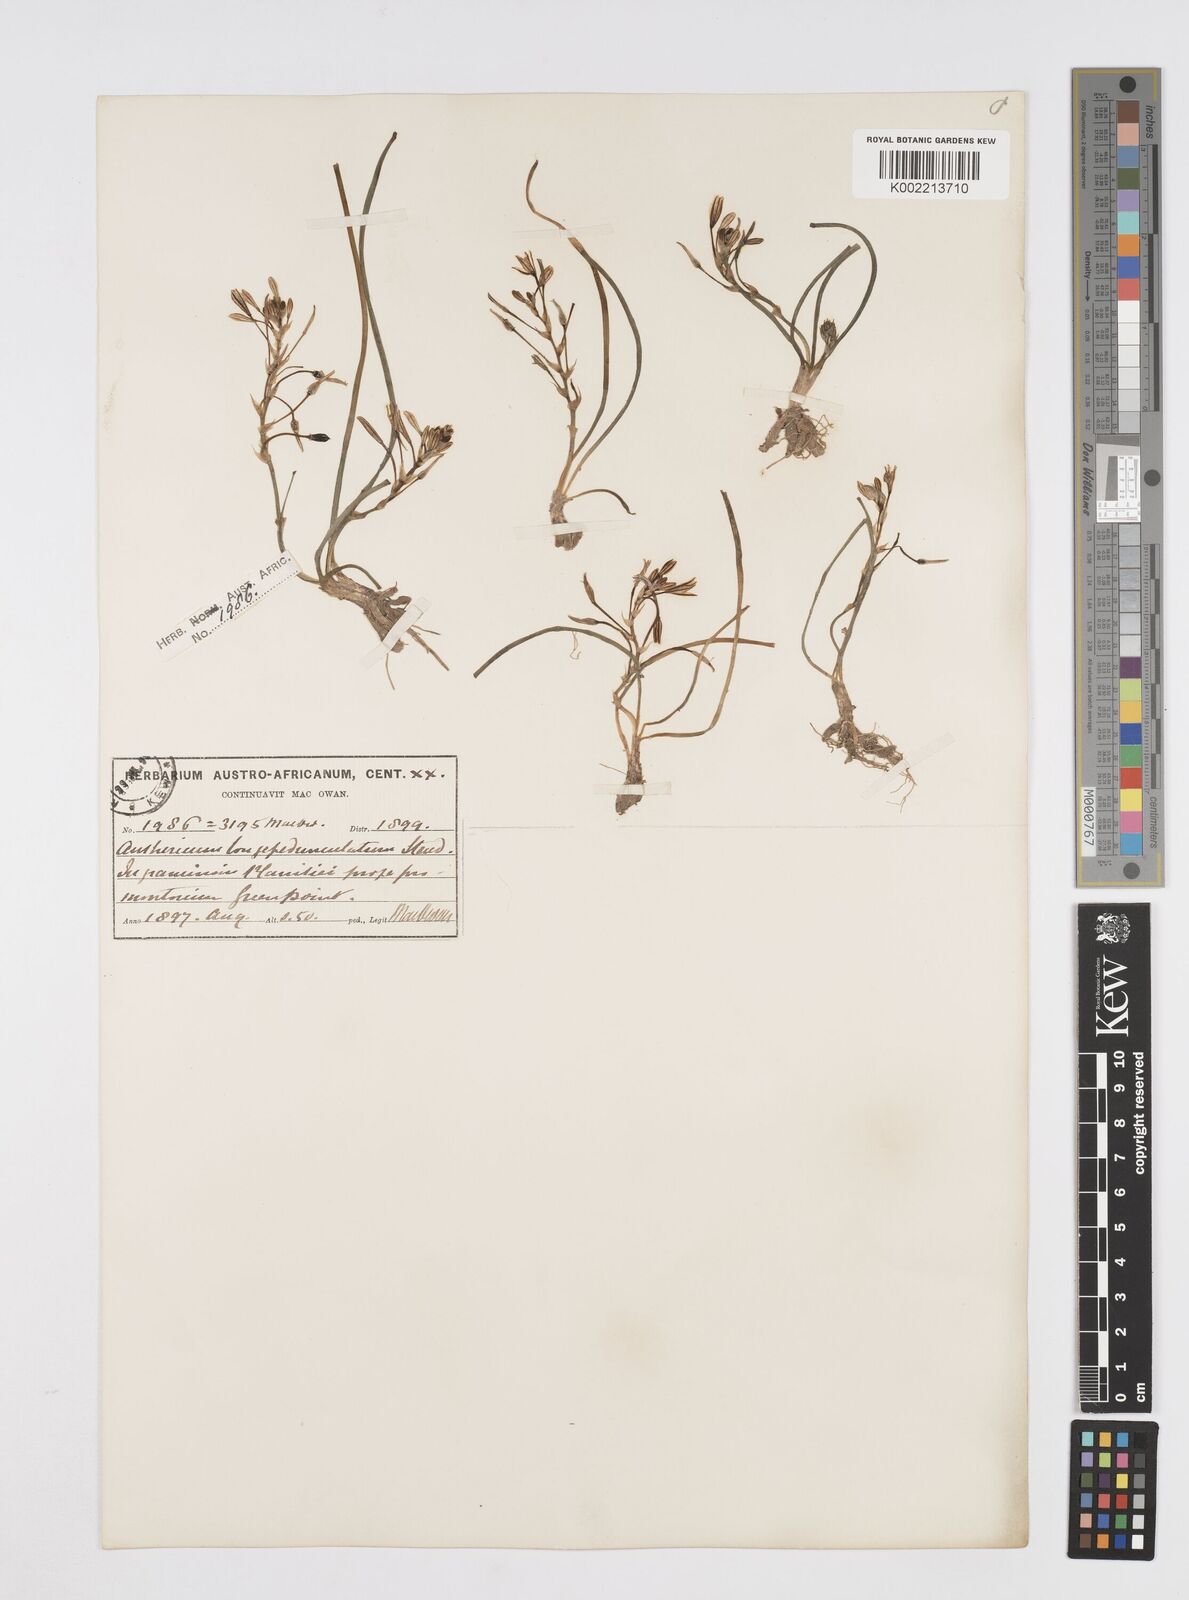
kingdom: Plantae
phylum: Tracheophyta
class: Liliopsida
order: Asparagales
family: Asphodelaceae
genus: Trachyandra
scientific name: Trachyandra filiformis
